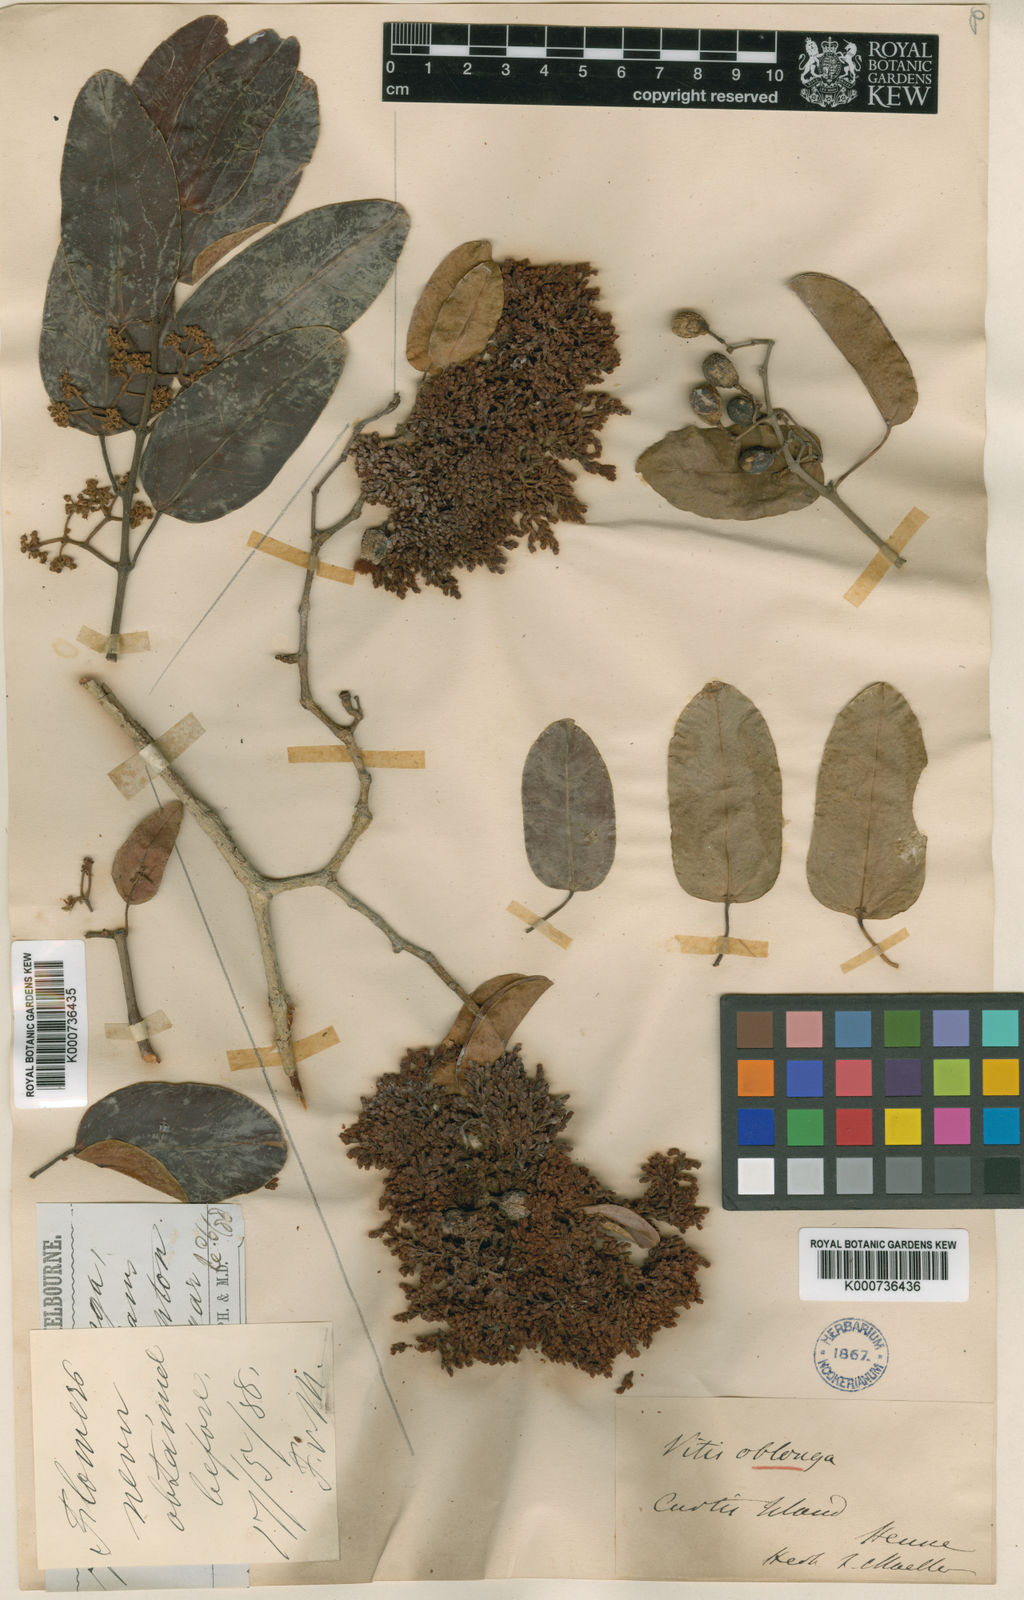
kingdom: Plantae
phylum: Tracheophyta
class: Magnoliopsida
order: Vitales
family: Vitaceae
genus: Cissus
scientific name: Cissus oblonga
